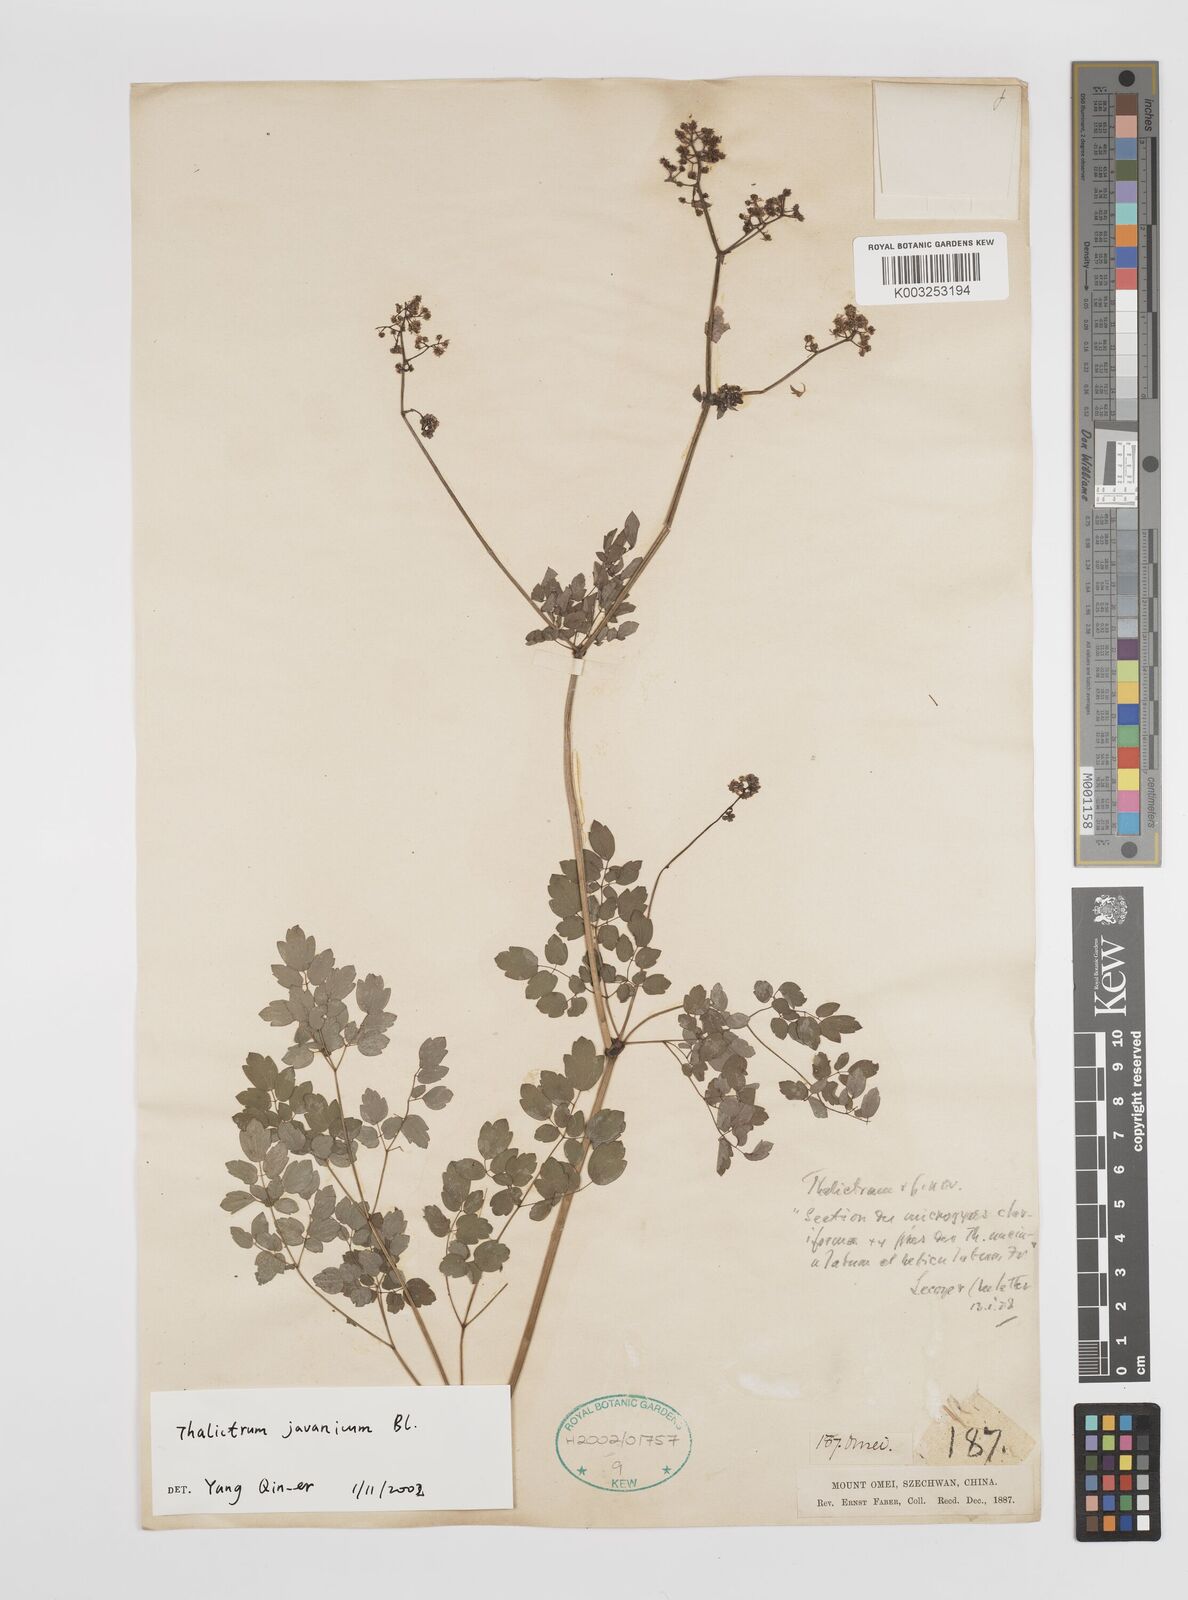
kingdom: Plantae
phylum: Tracheophyta
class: Magnoliopsida
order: Ranunculales
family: Ranunculaceae
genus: Thalictrum
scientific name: Thalictrum javanicum
